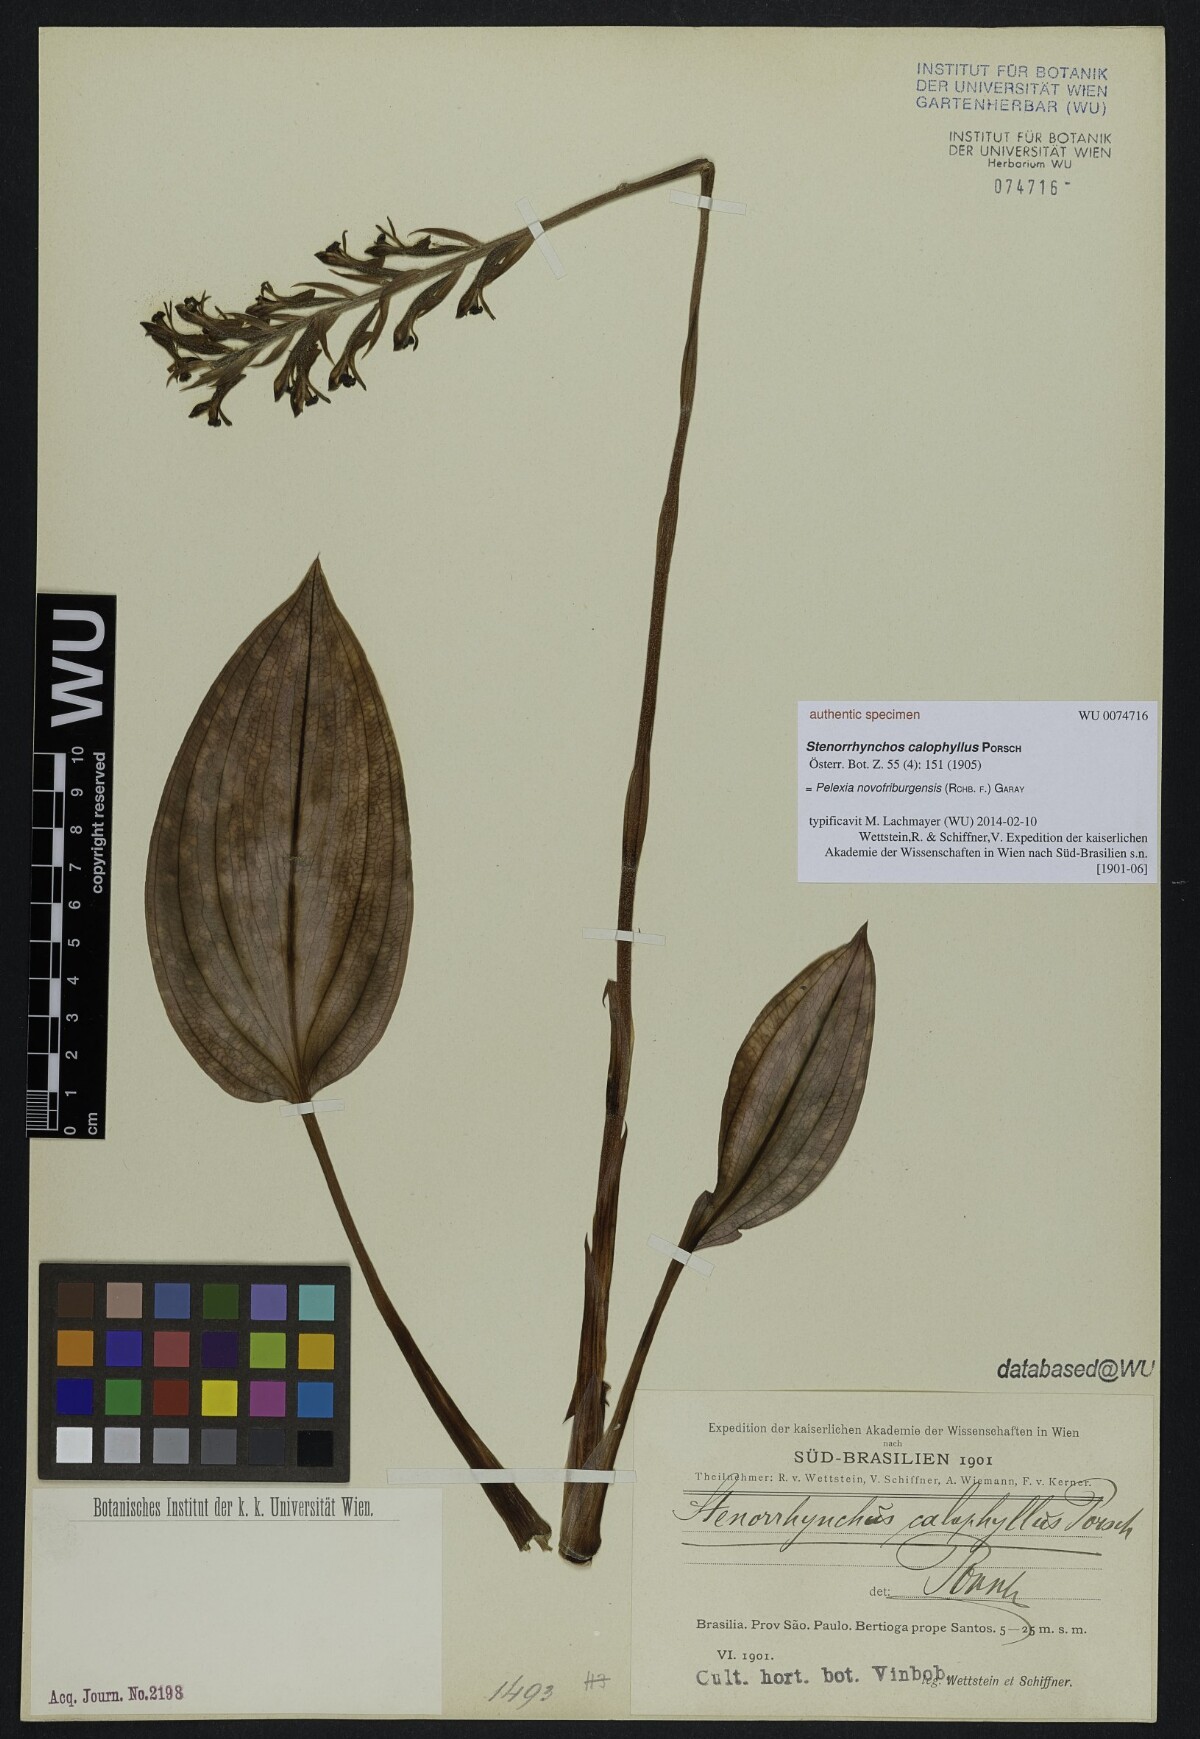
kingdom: Plantae
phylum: Tracheophyta
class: Liliopsida
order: Asparagales
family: Orchidaceae
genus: Pelexia
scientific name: Pelexia novofriburgensis
